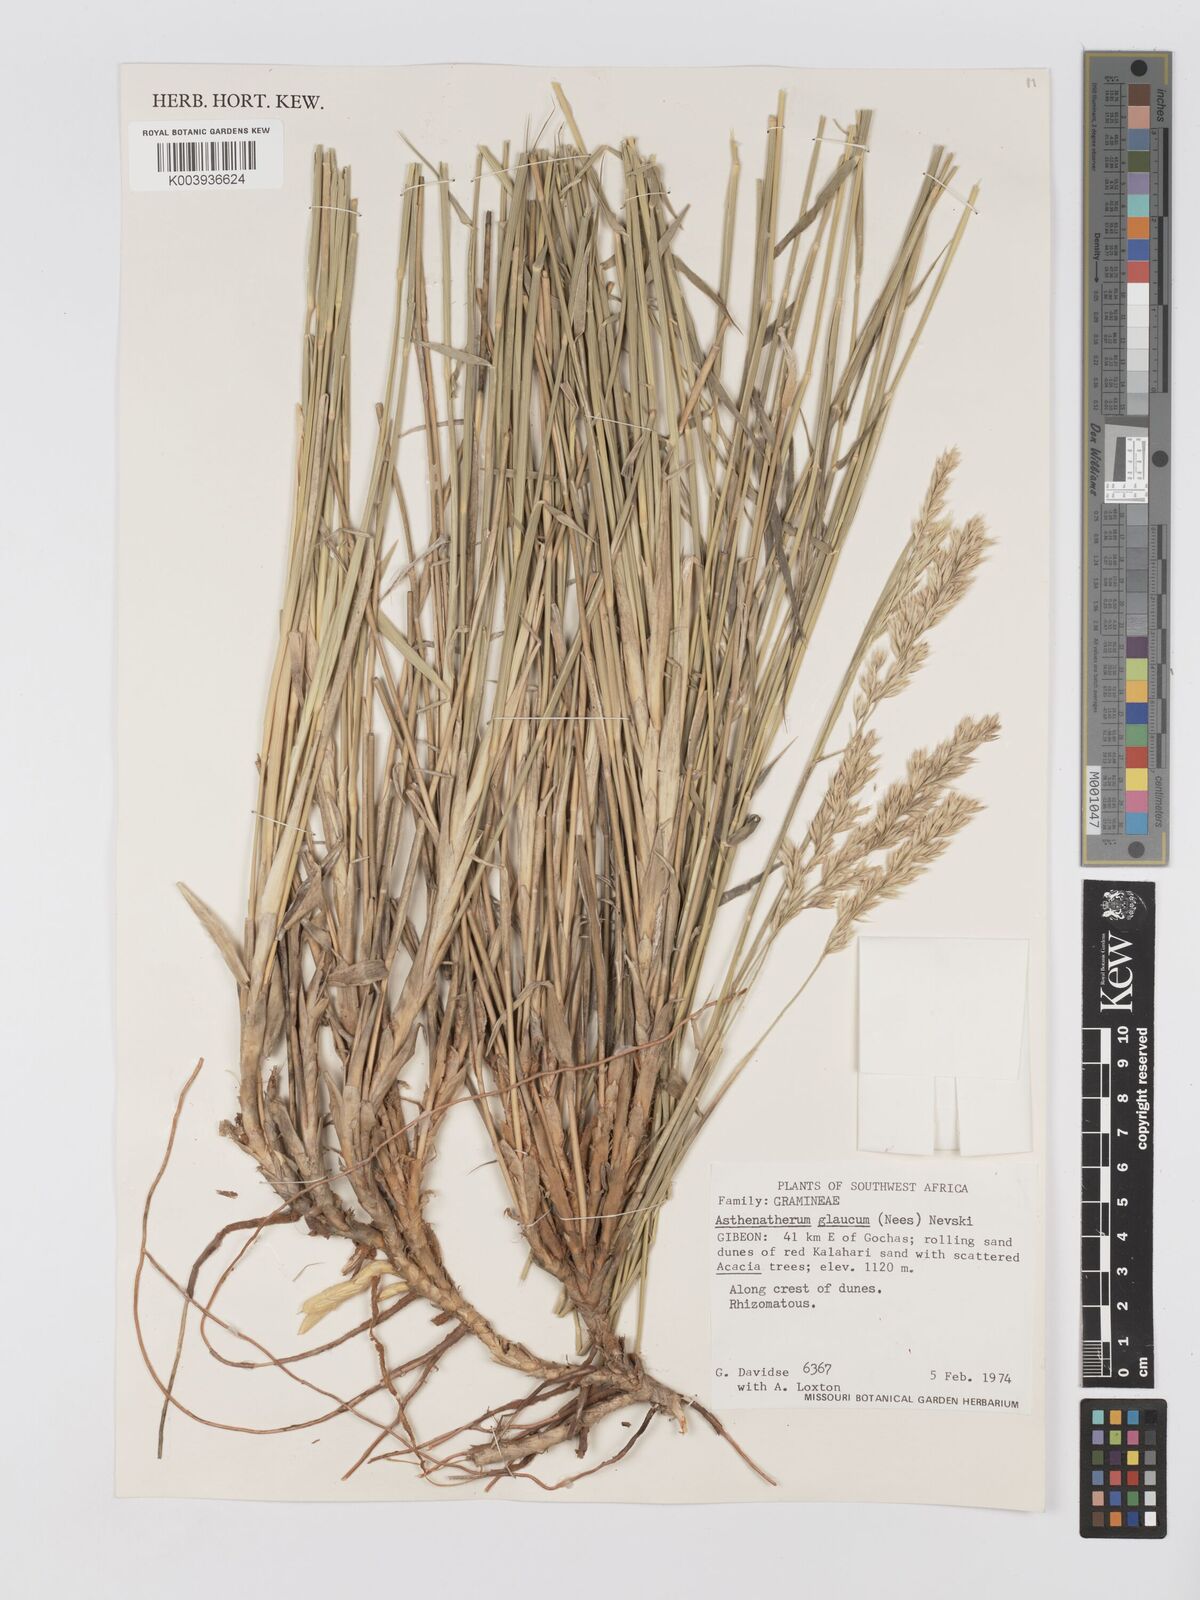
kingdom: Plantae
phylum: Tracheophyta
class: Liliopsida
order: Poales
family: Poaceae
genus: Centropodia
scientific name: Centropodia glauca
